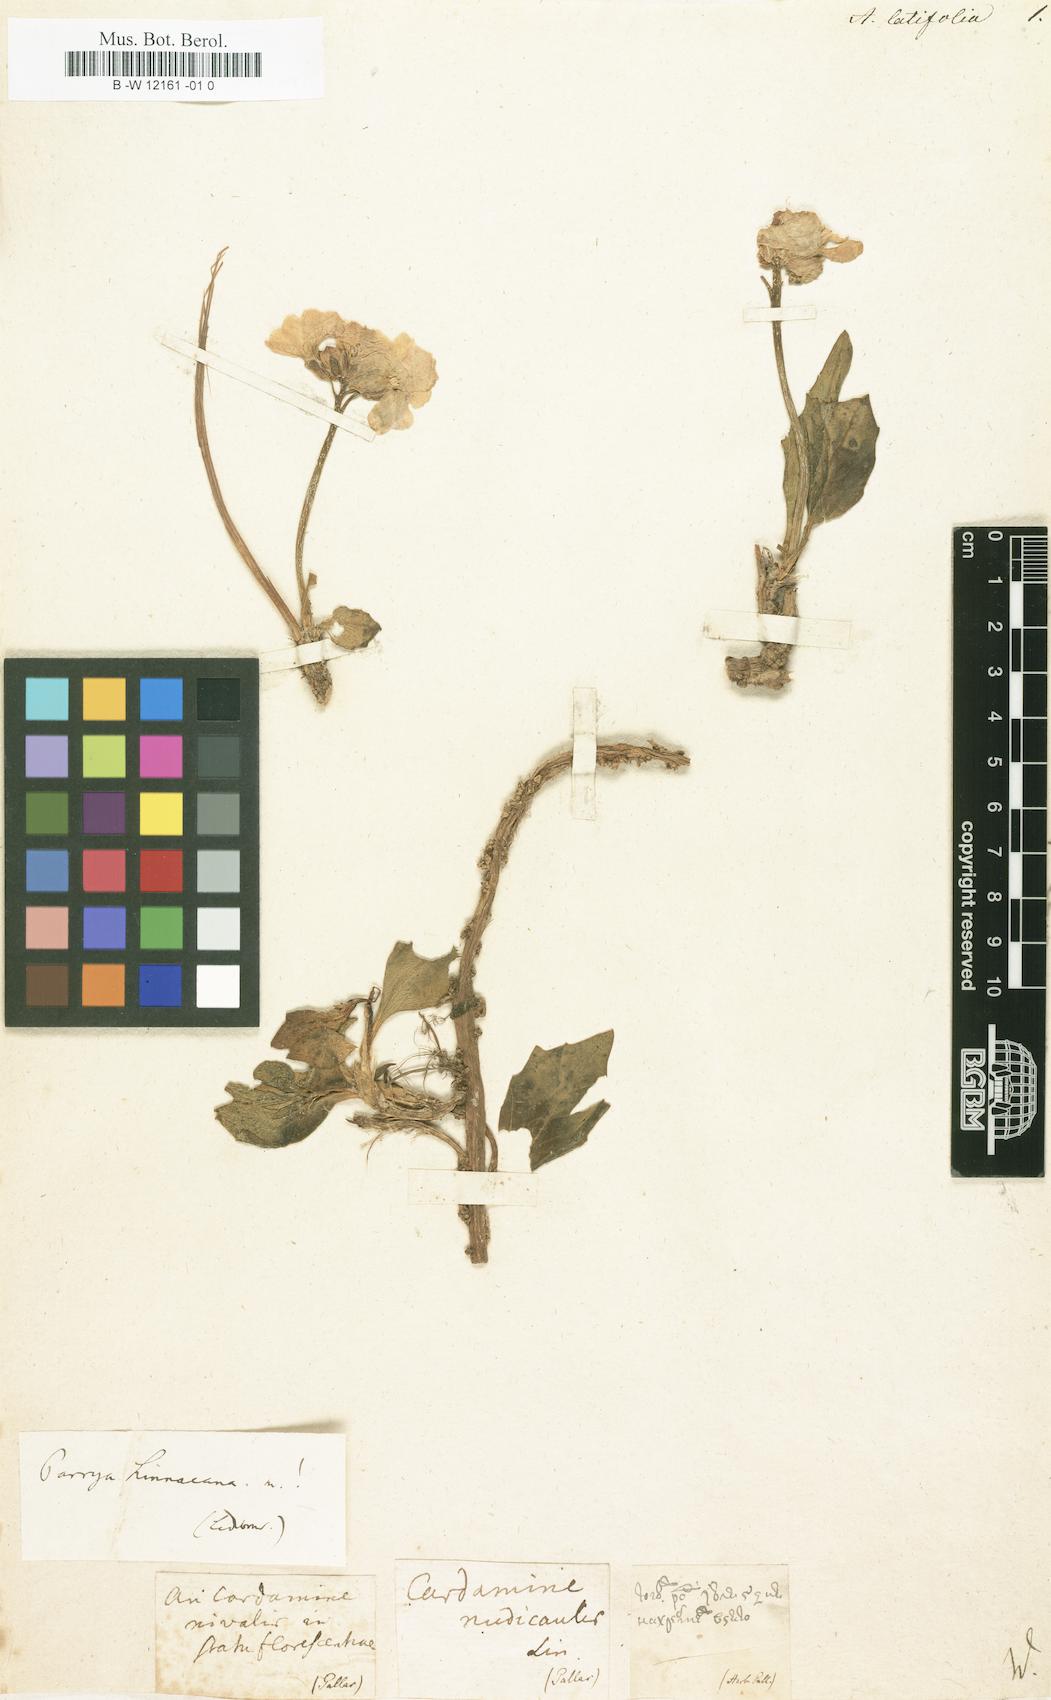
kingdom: Plantae
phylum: Tracheophyta
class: Magnoliopsida
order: Brassicales
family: Brassicaceae
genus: Boechera
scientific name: Boechera lemmonii
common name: Lemmon's rockcress
